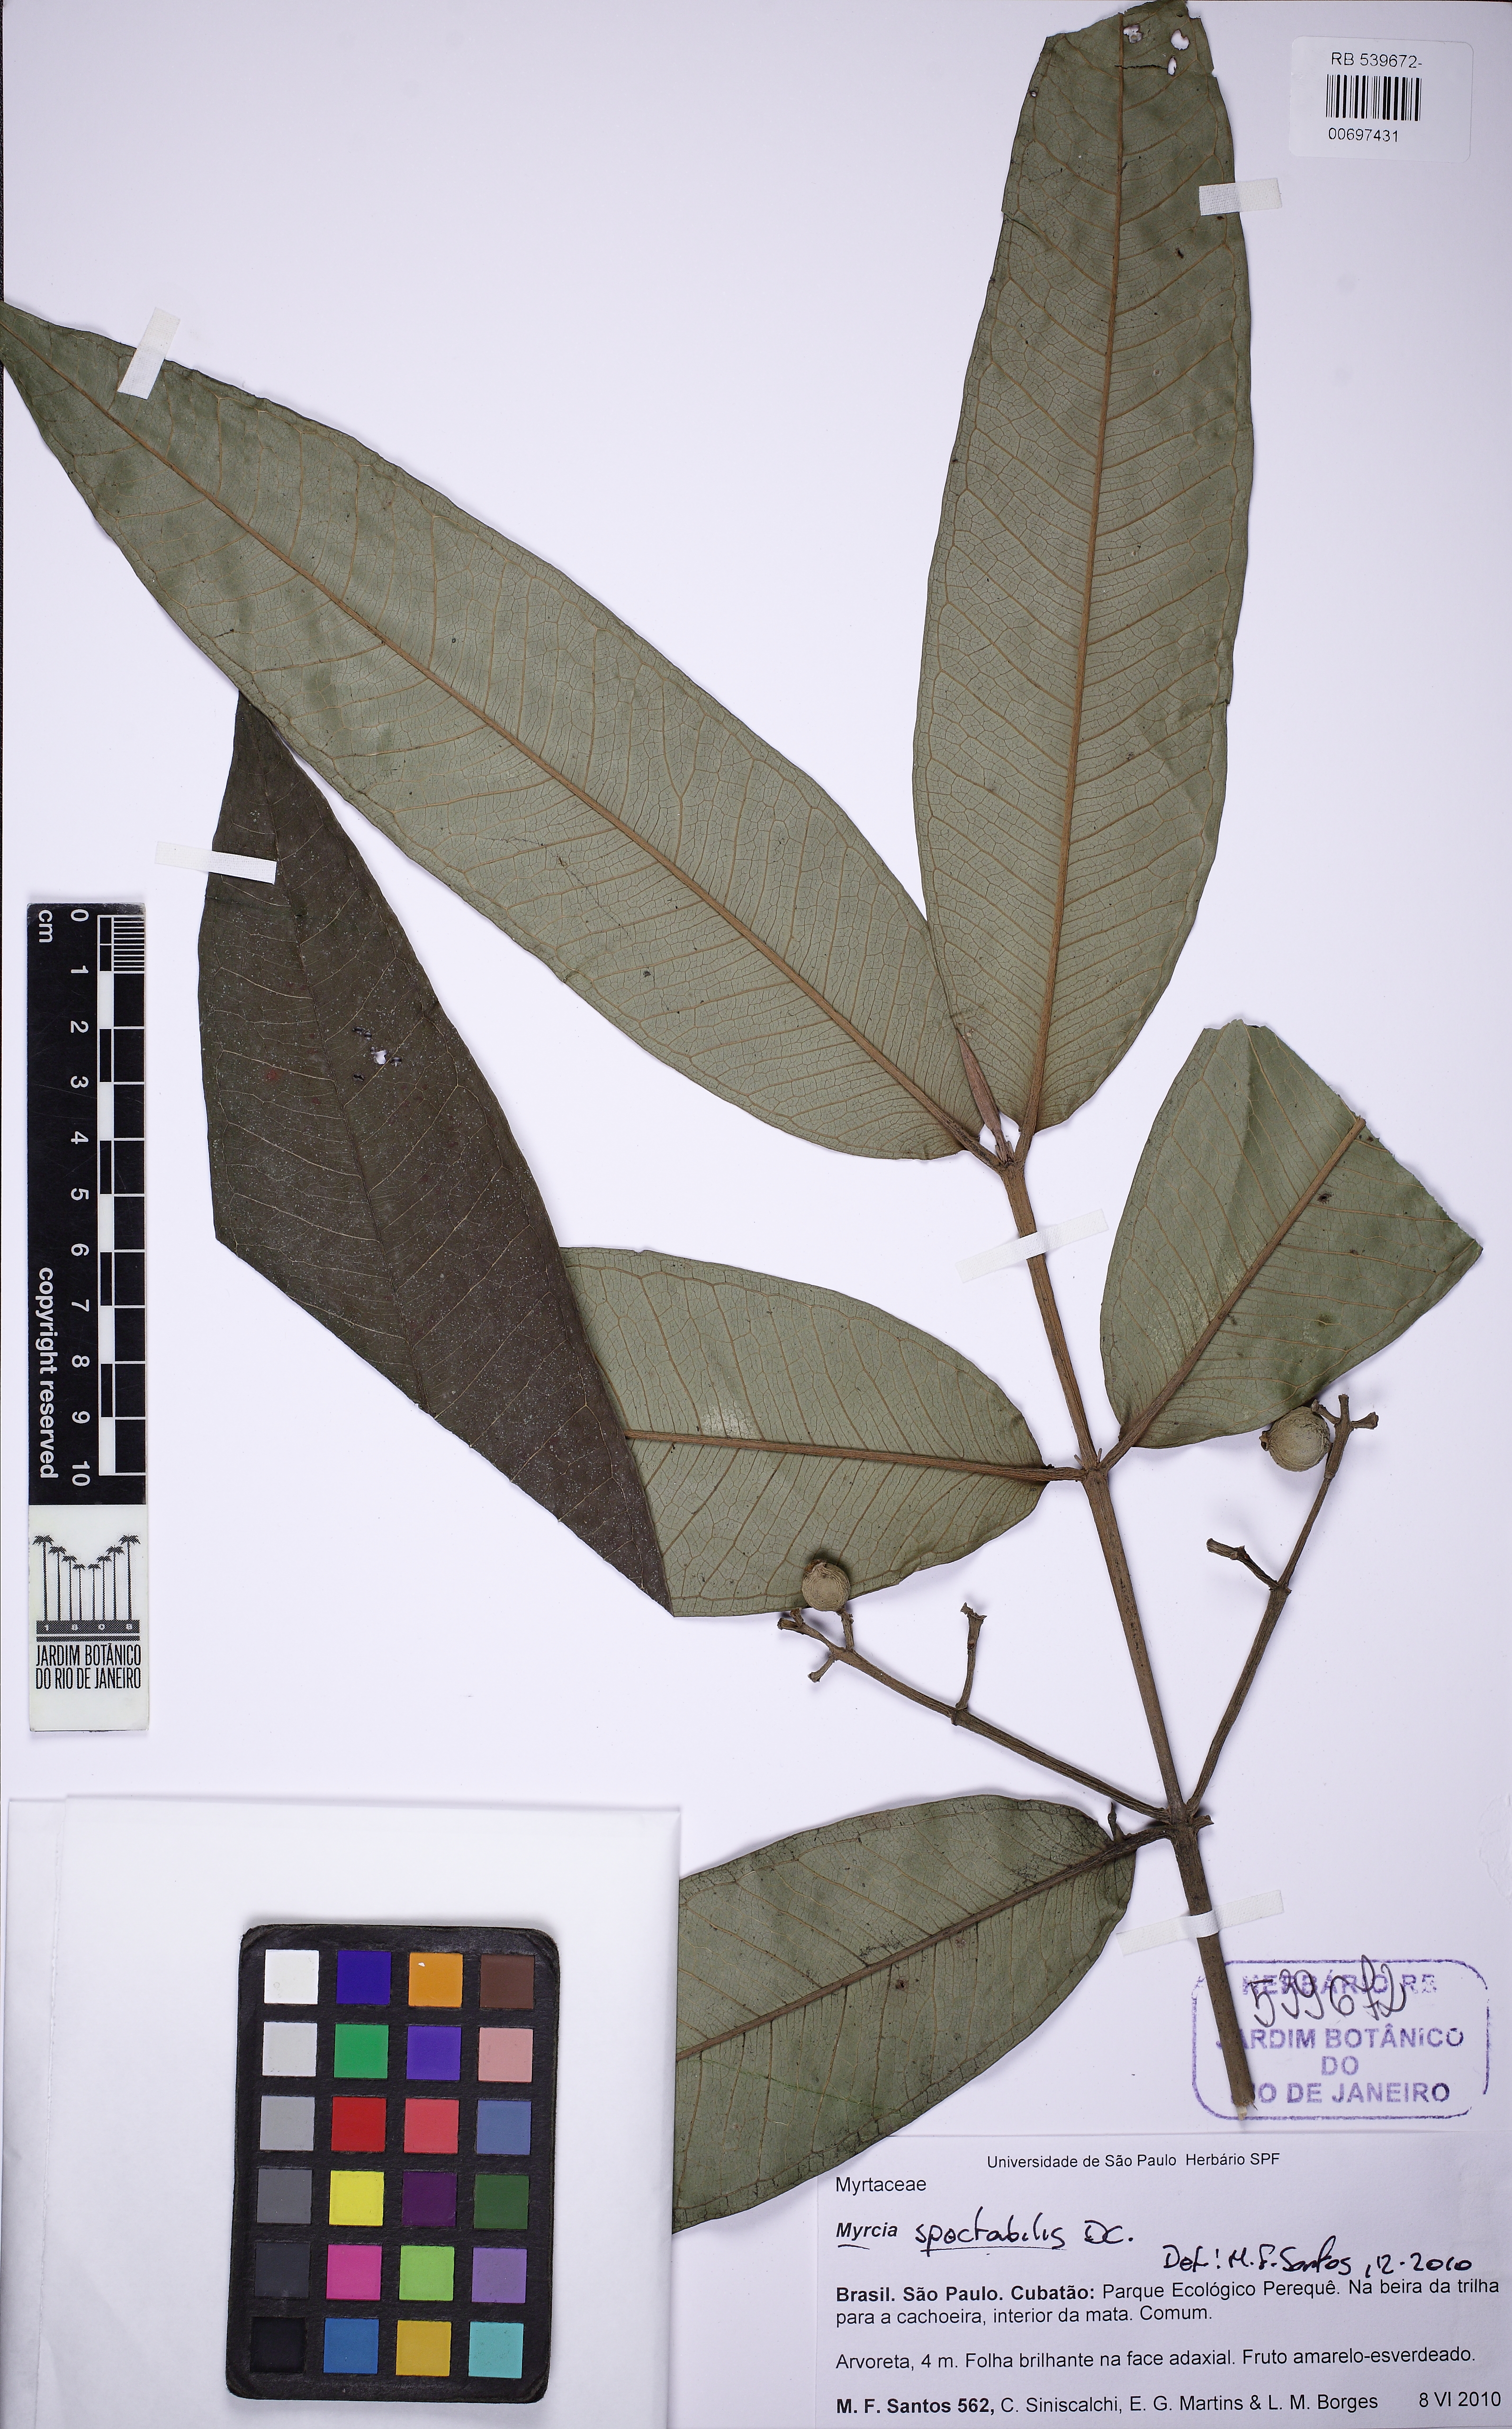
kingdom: Plantae
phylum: Tracheophyta
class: Magnoliopsida
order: Myrtales
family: Myrtaceae
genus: Myrcia
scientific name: Myrcia spectabilis
